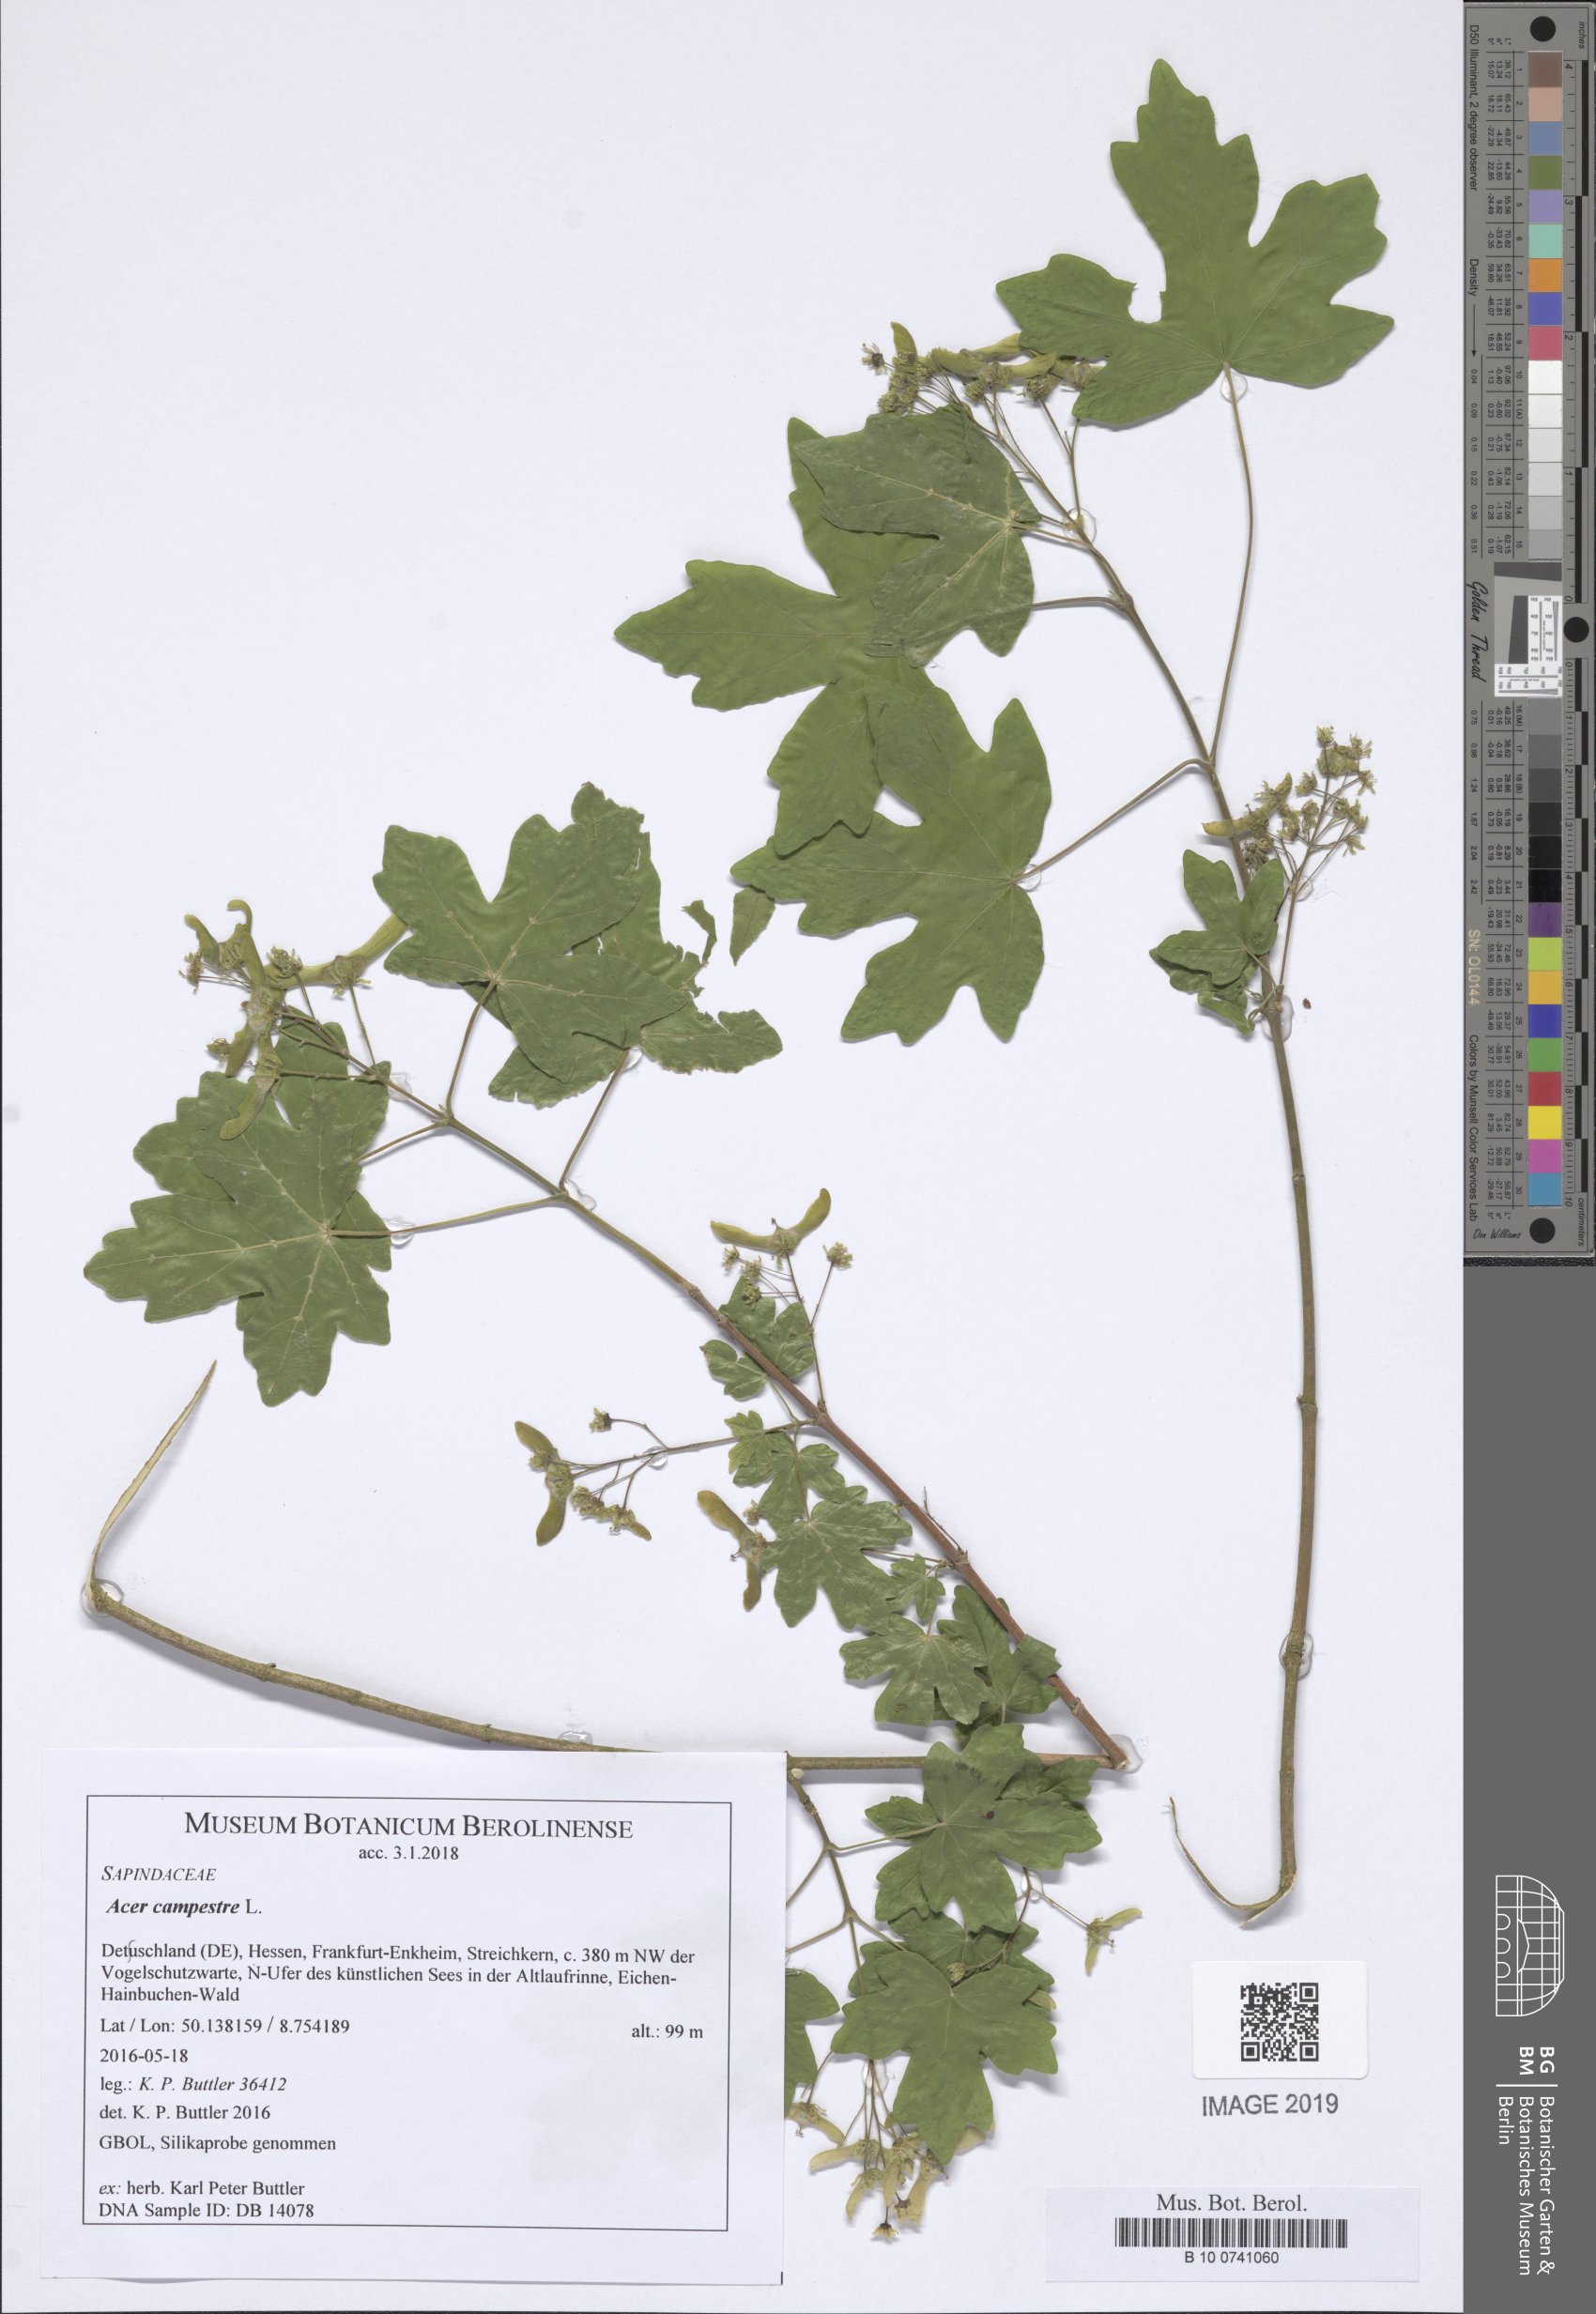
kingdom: Plantae
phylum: Tracheophyta
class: Magnoliopsida
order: Sapindales
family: Sapindaceae
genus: Acer
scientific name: Acer campestre
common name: Field maple
